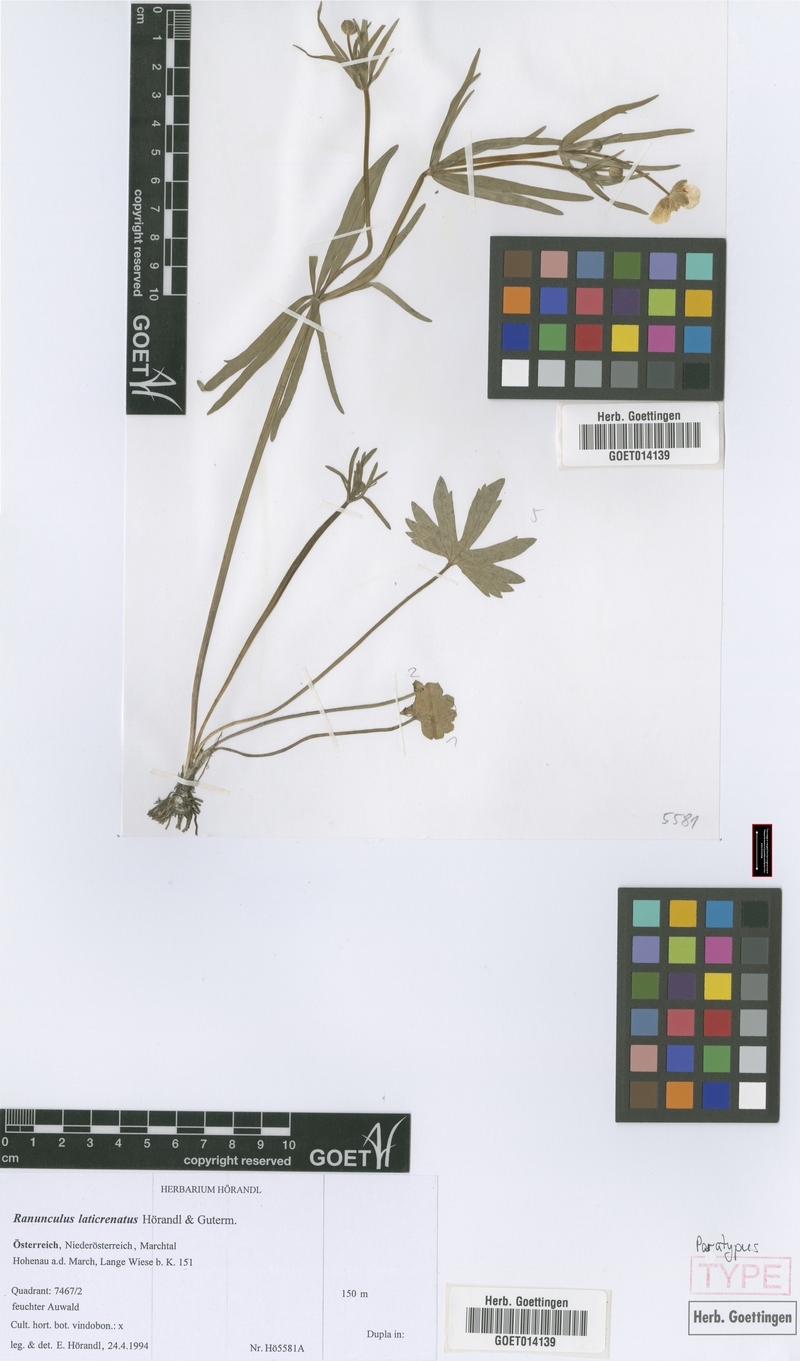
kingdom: Plantae
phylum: Tracheophyta
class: Magnoliopsida
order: Ranunculales
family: Ranunculaceae
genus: Ranunculus
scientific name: Ranunculus laticrenatus
